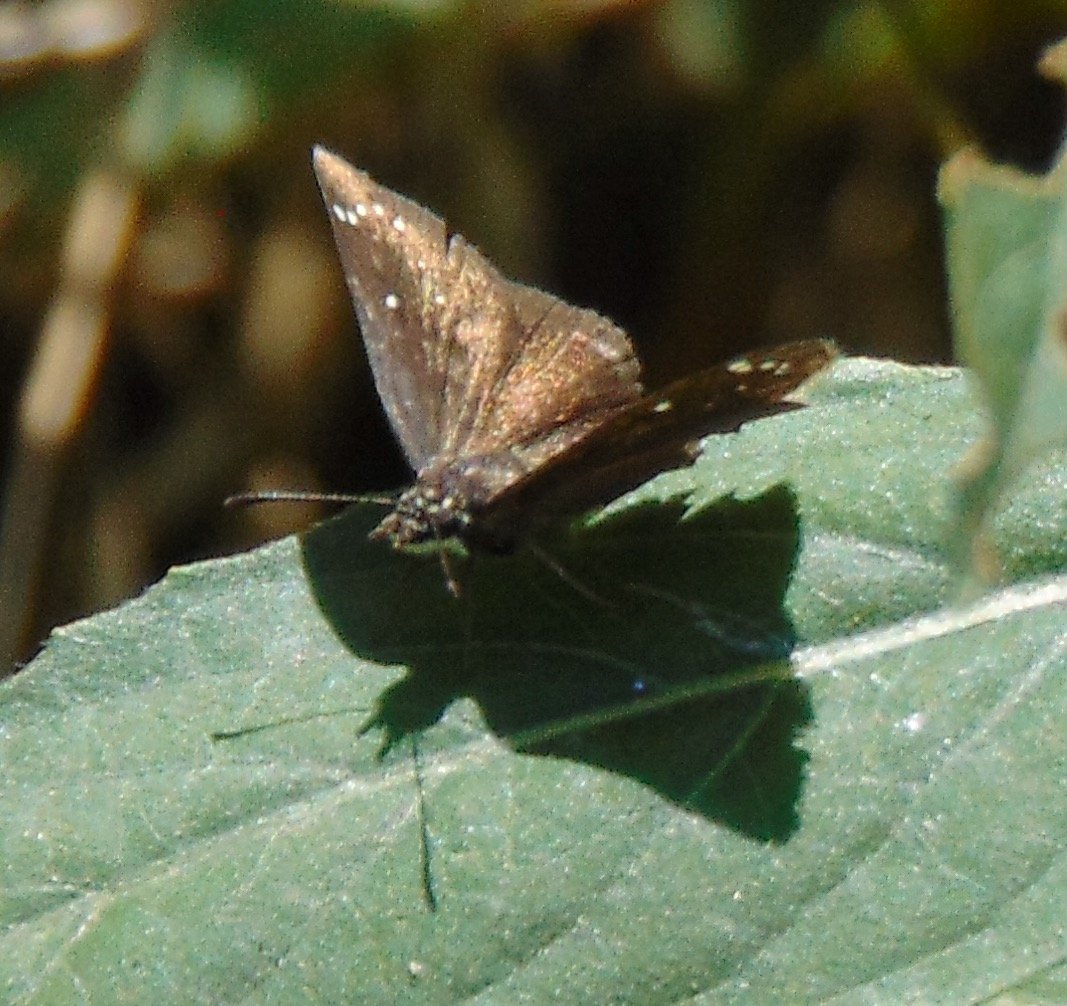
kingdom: Animalia
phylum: Arthropoda
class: Insecta
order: Lepidoptera
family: Hesperiidae
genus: Pholisora
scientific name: Pholisora catullus
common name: Common Sootywing
